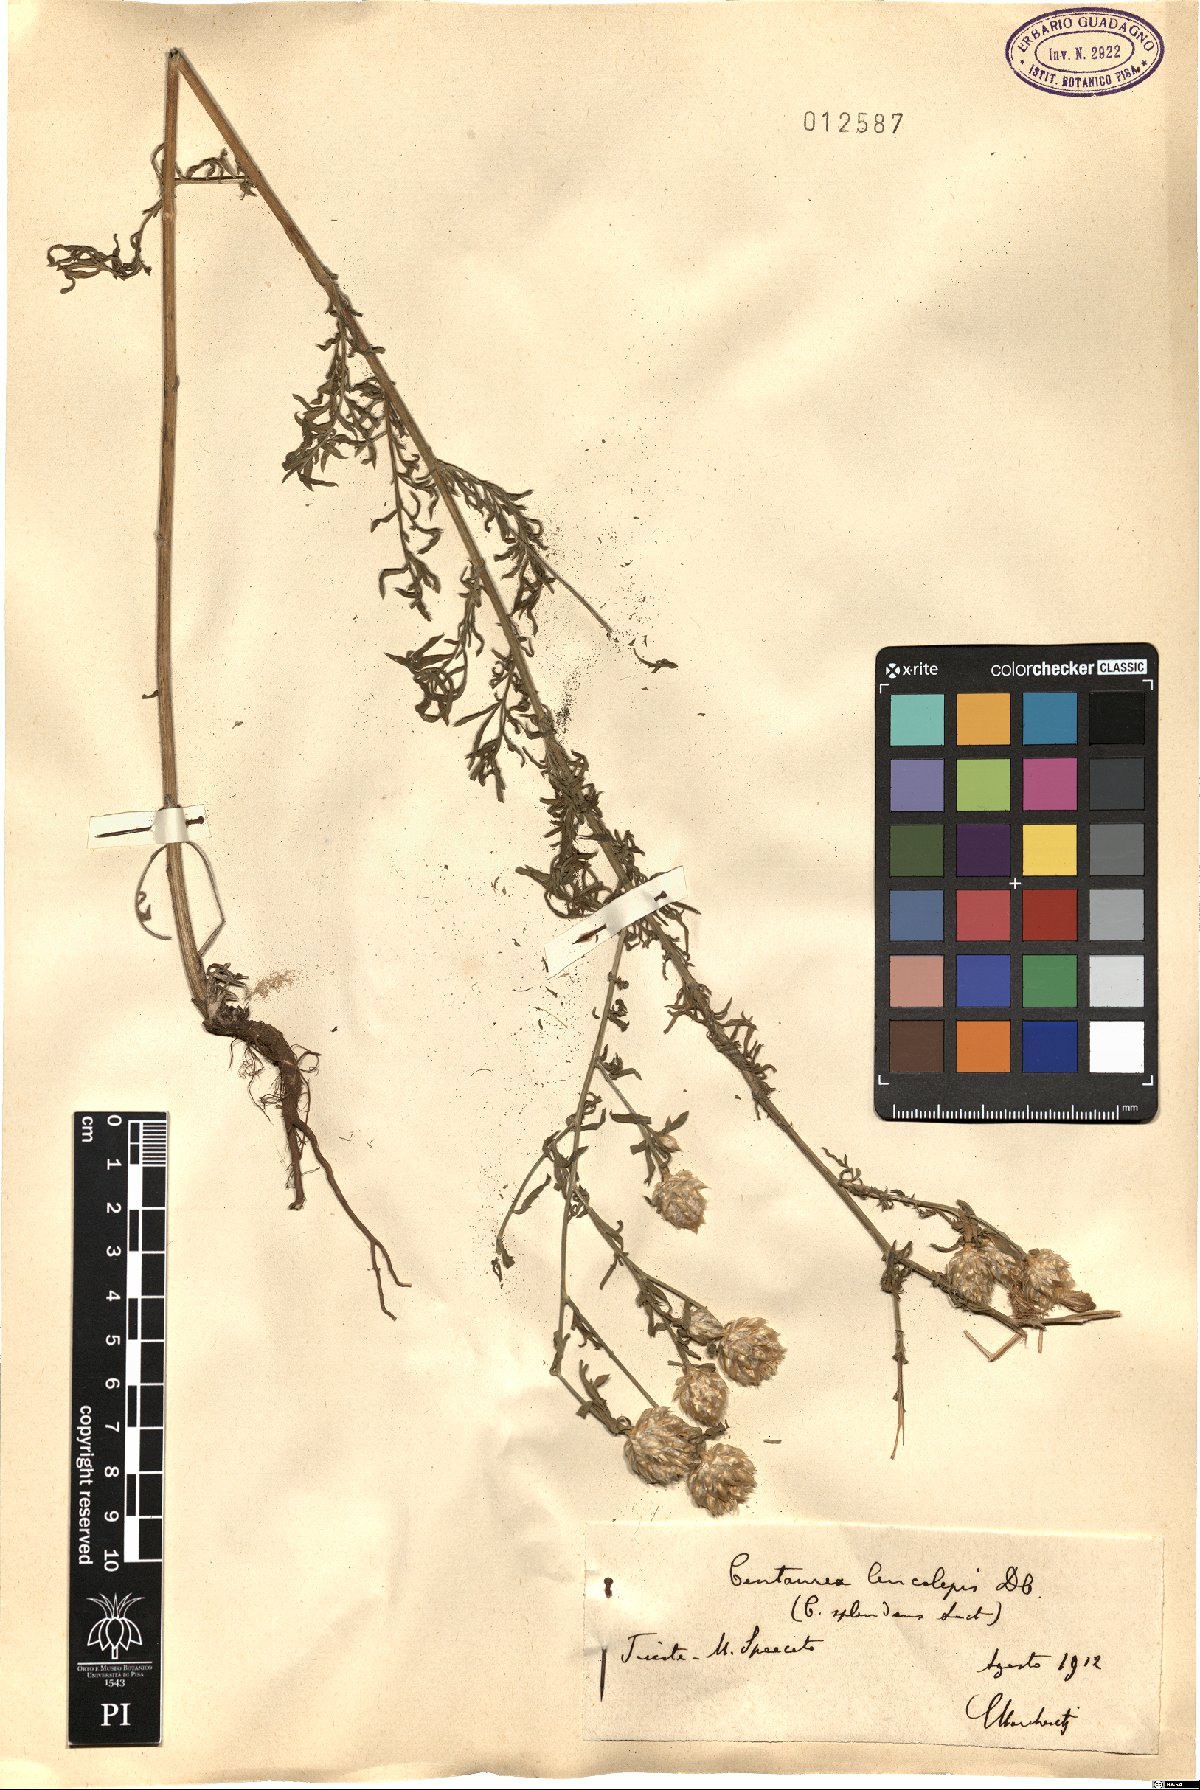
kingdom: Plantae
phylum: Tracheophyta
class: Magnoliopsida
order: Asterales
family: Asteraceae
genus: Centaurea
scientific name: Centaurea deusta
